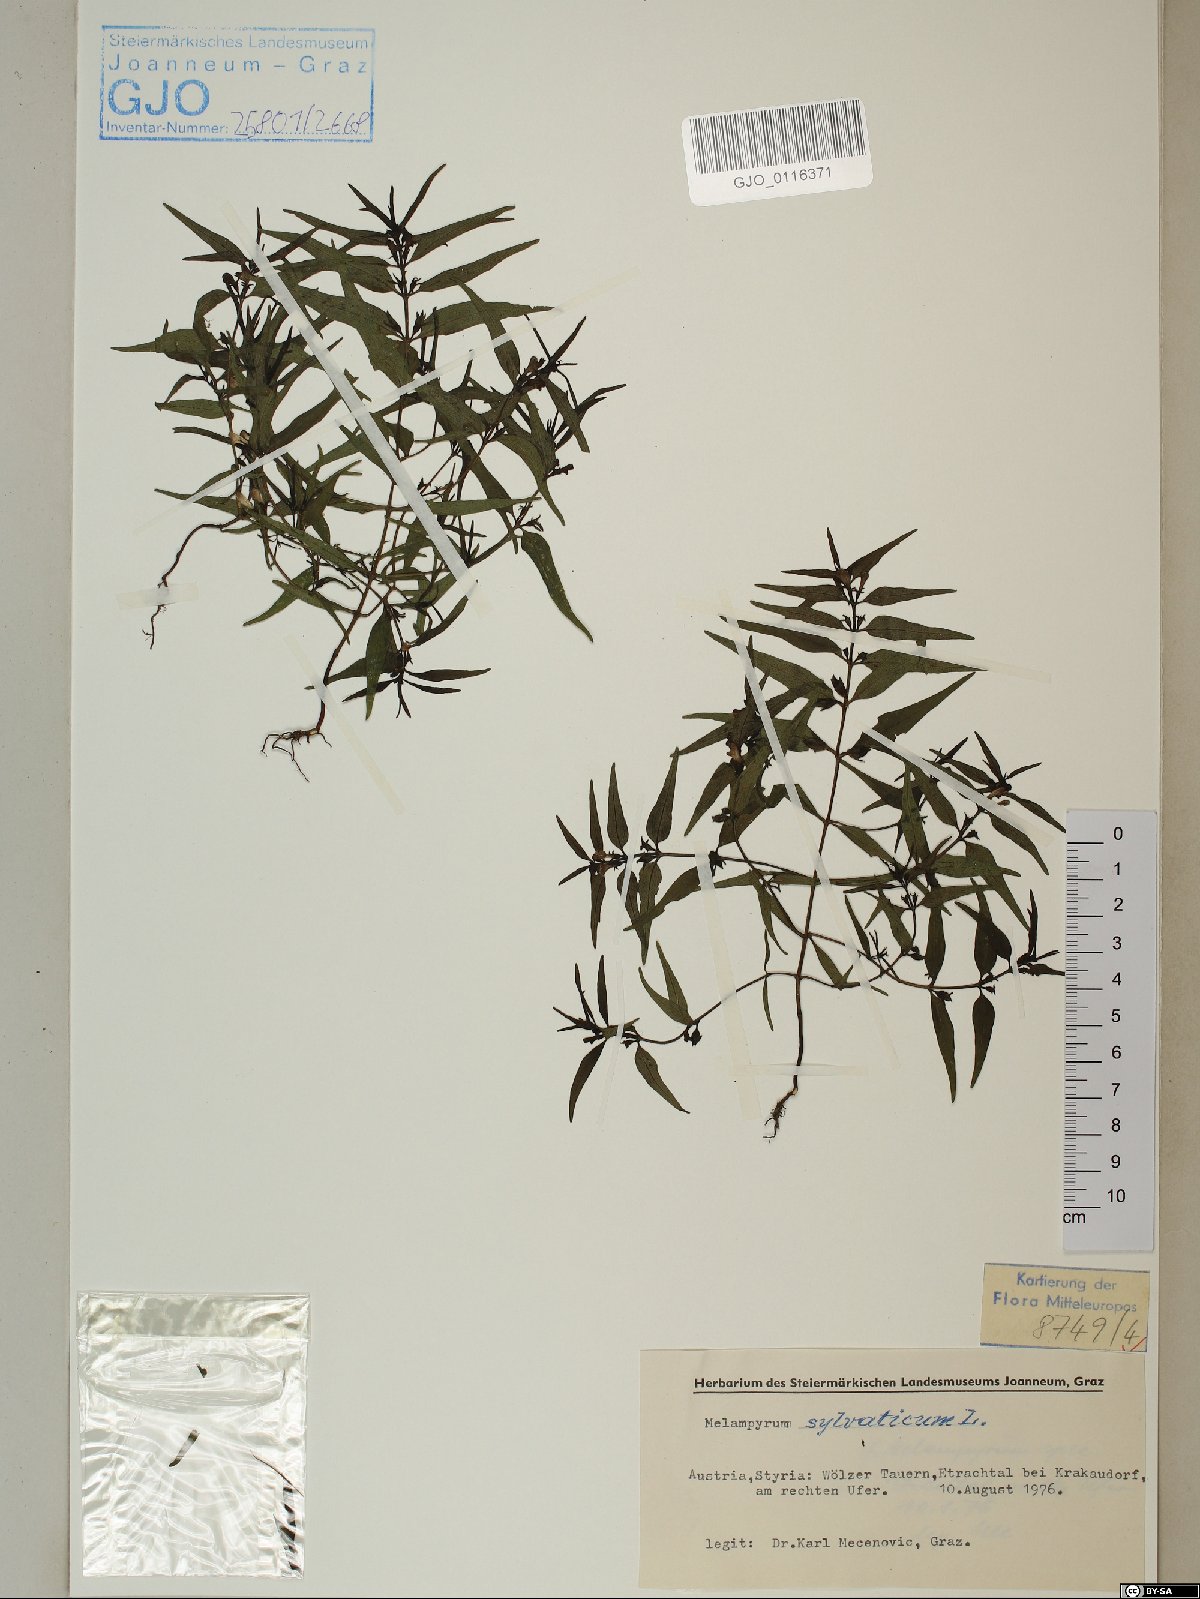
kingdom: Plantae
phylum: Tracheophyta
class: Magnoliopsida
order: Lamiales
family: Orobanchaceae
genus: Melampyrum
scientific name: Melampyrum sylvaticum
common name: Small cow-wheat
